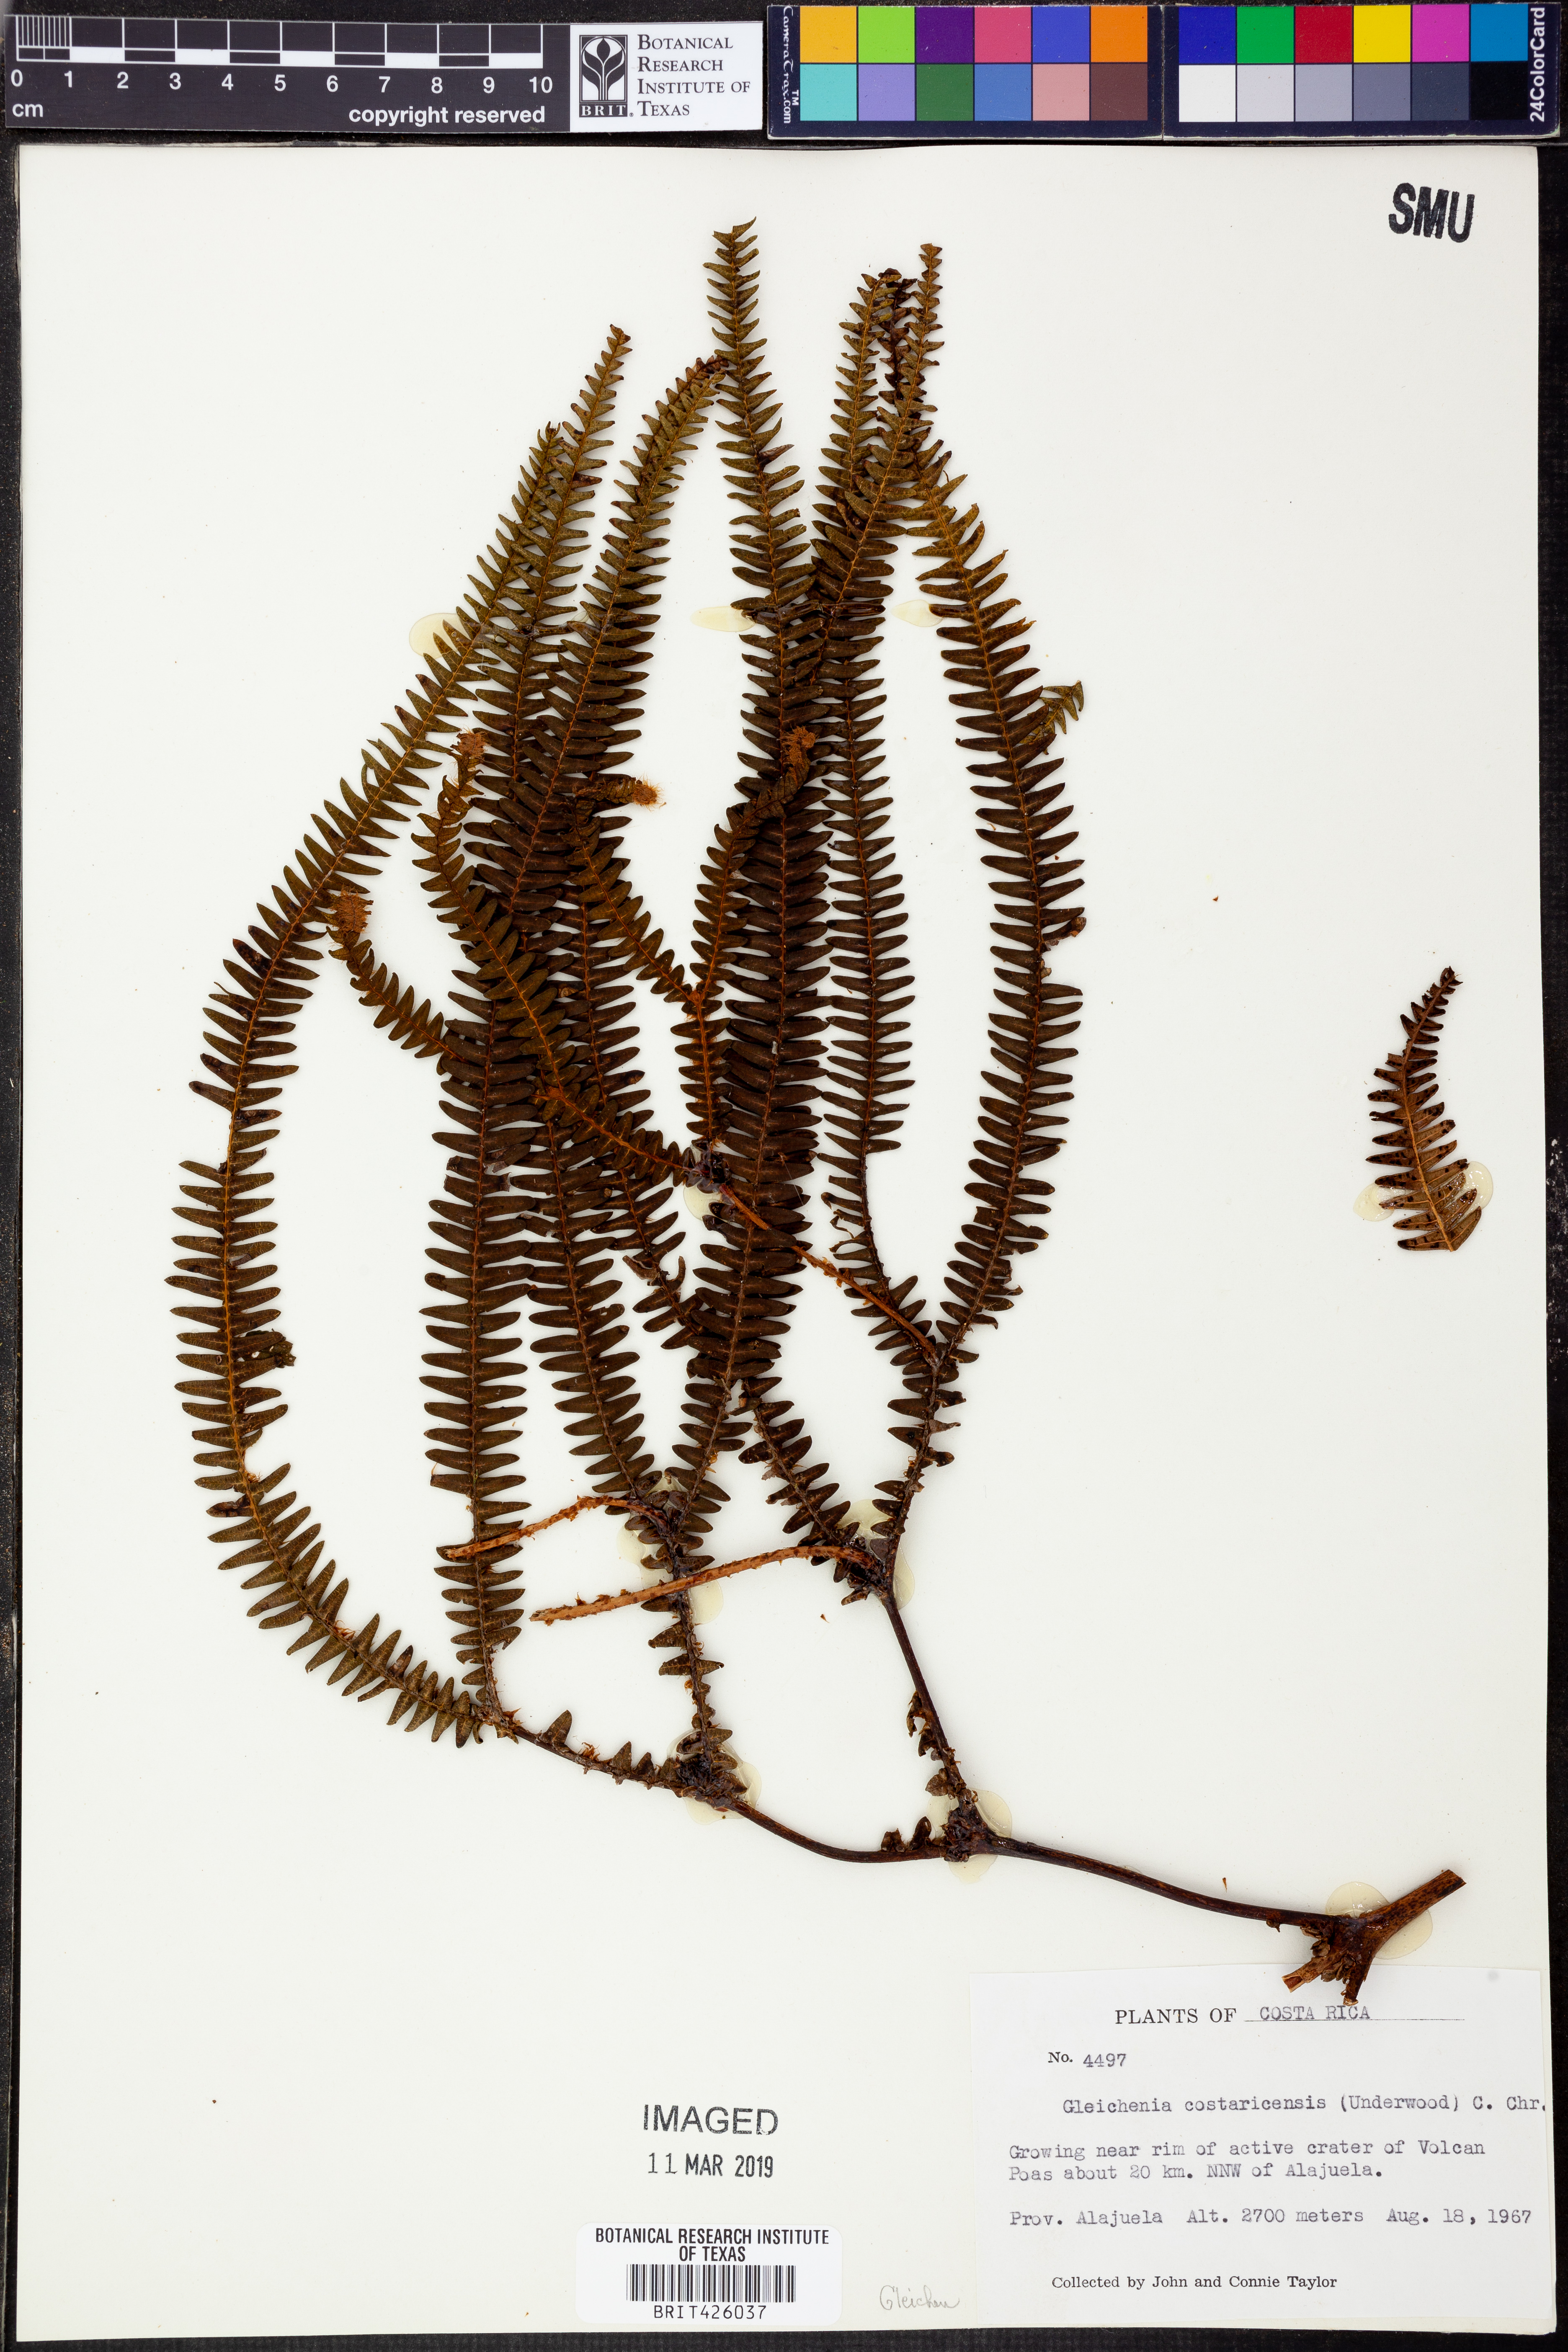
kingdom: Plantae
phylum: Tracheophyta
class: Polypodiopsida
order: Gleicheniales
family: Gleicheniaceae
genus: Sticherus
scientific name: Sticherus revolutus
